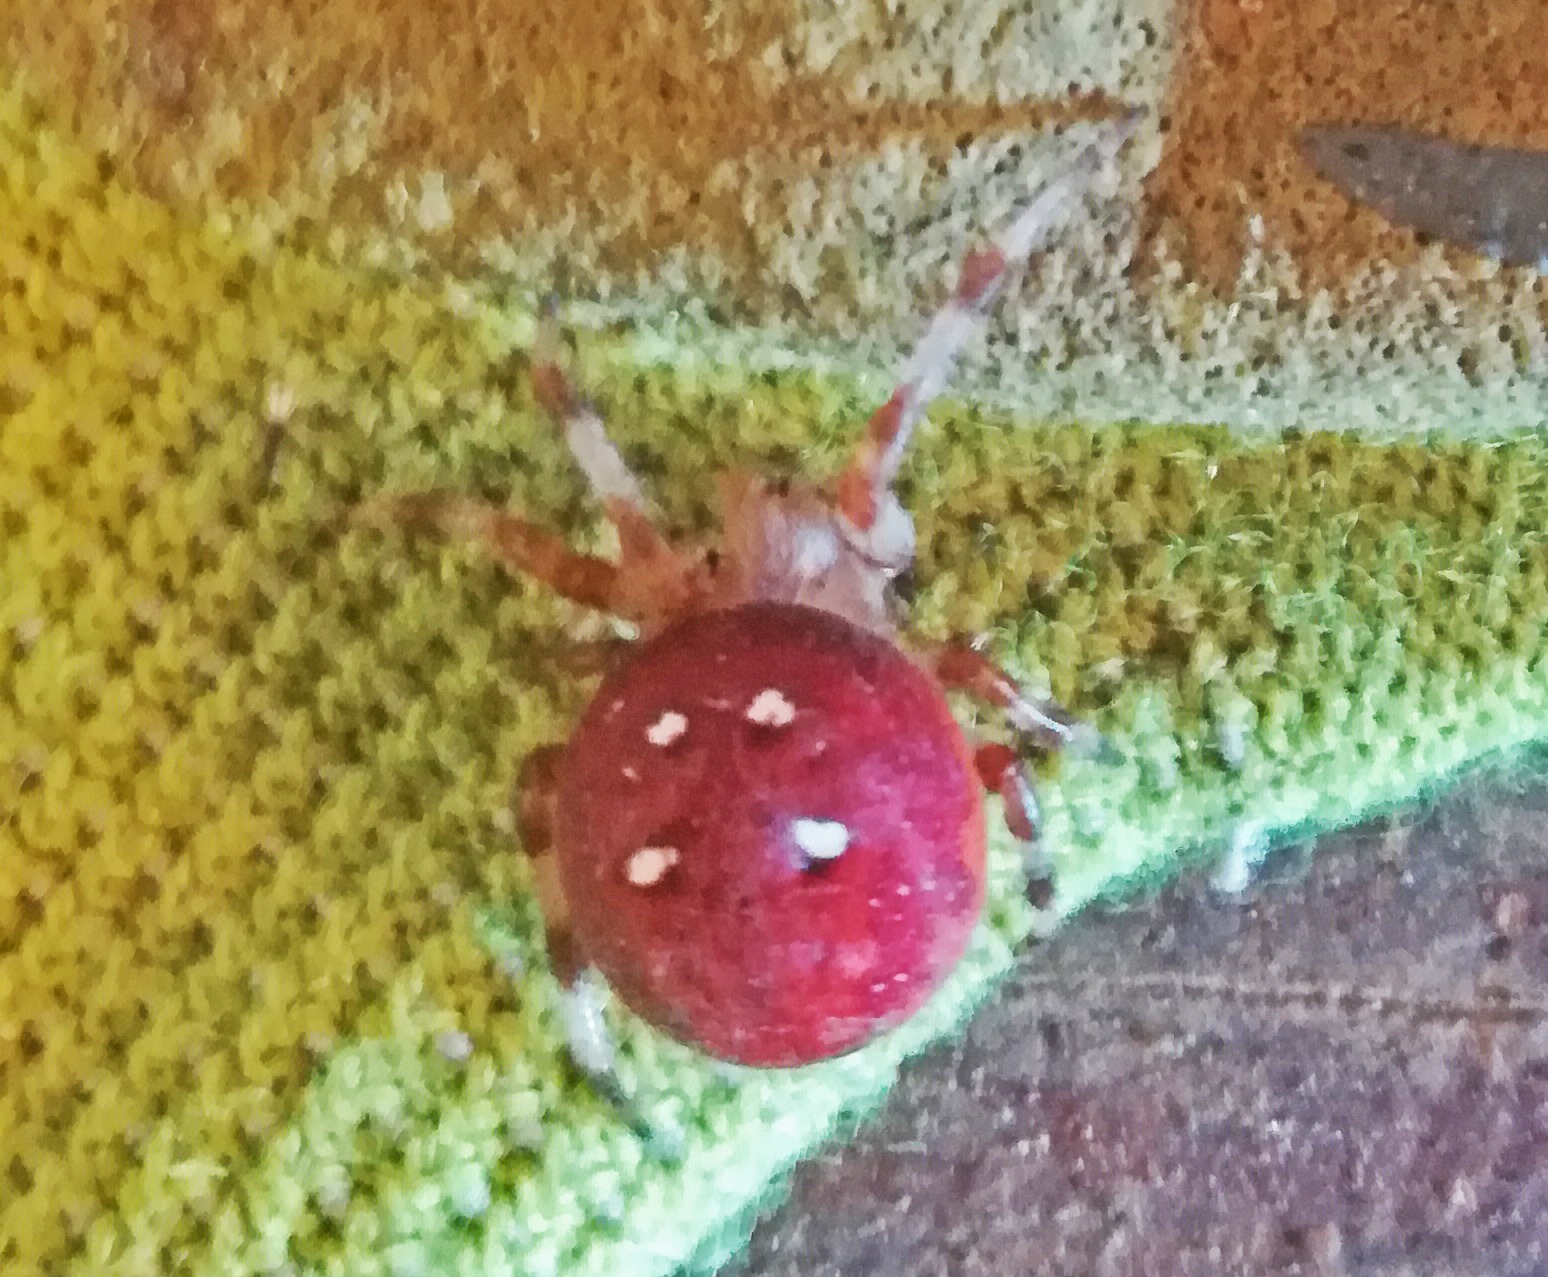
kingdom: Animalia
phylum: Arthropoda
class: Arachnida
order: Araneae
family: Araneidae
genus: Araneus
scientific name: Araneus quadratus
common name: Kvadratedderkop
